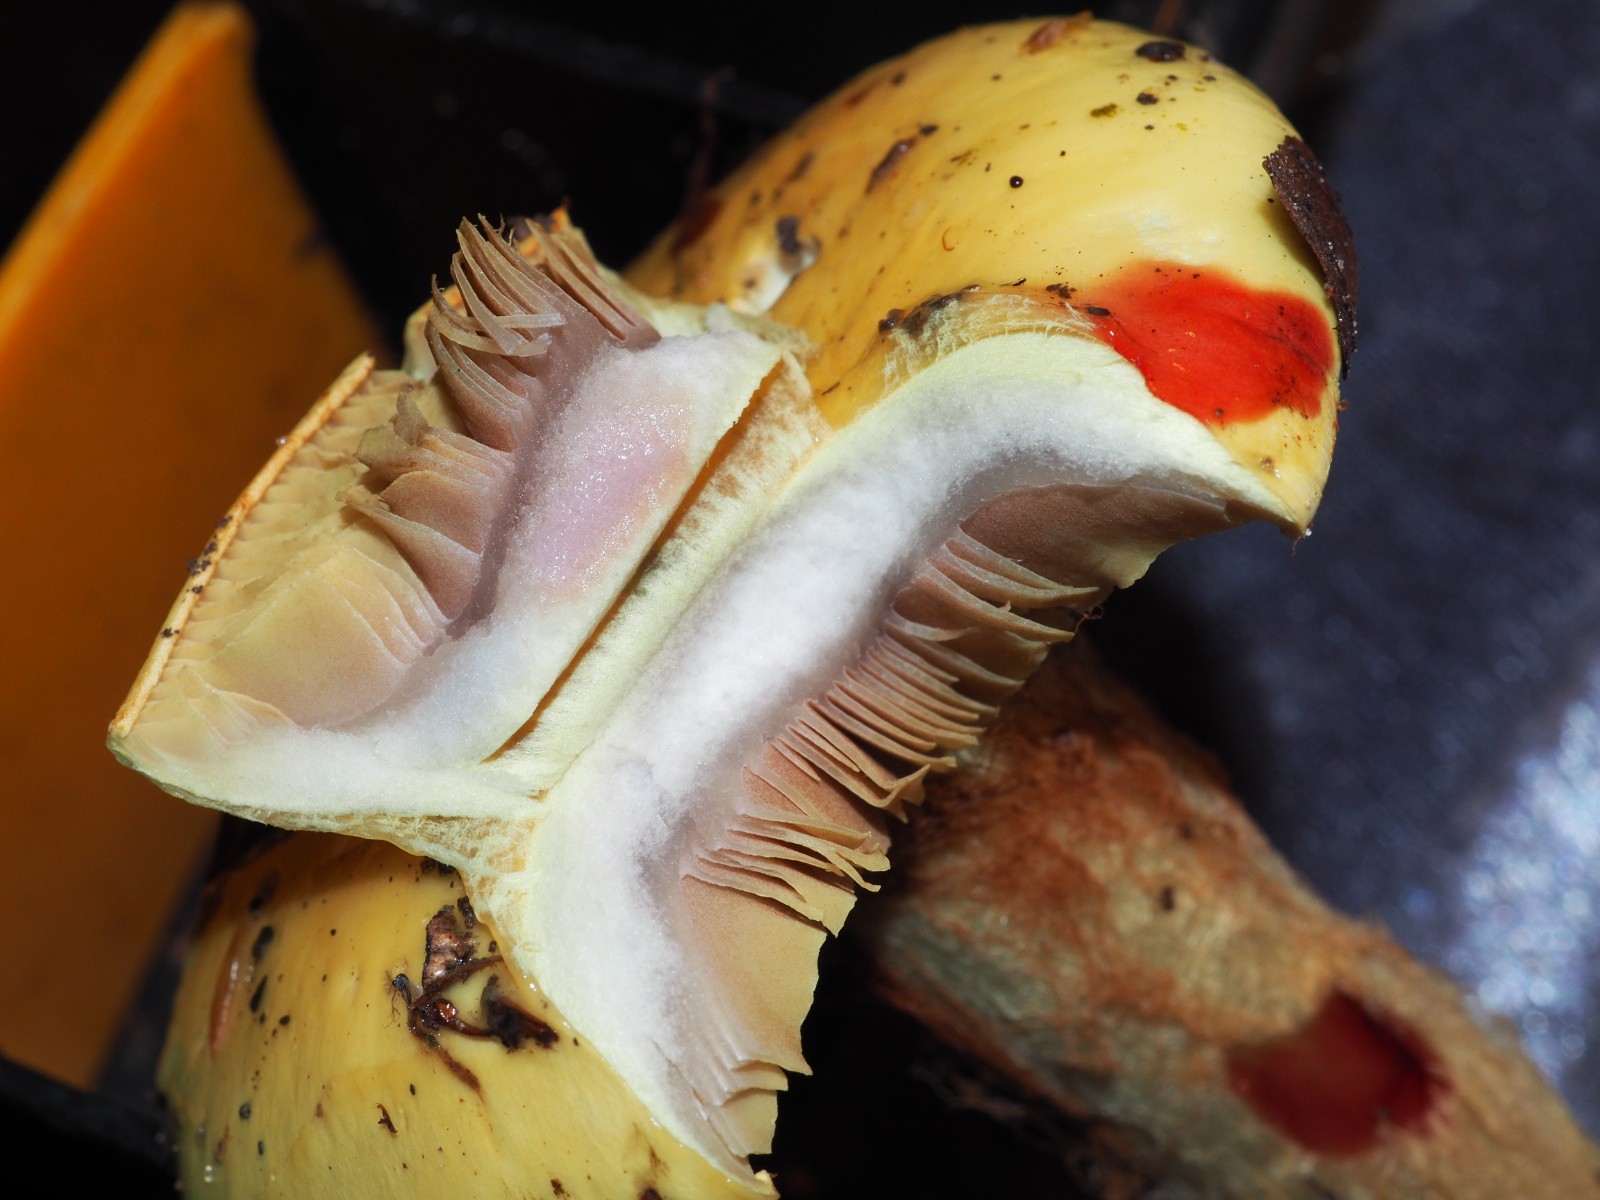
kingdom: Fungi
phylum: Basidiomycota
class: Agaricomycetes
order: Agaricales
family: Cortinariaceae
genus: Calonarius
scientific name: Calonarius elegantissimus
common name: orangegylden slørhat
